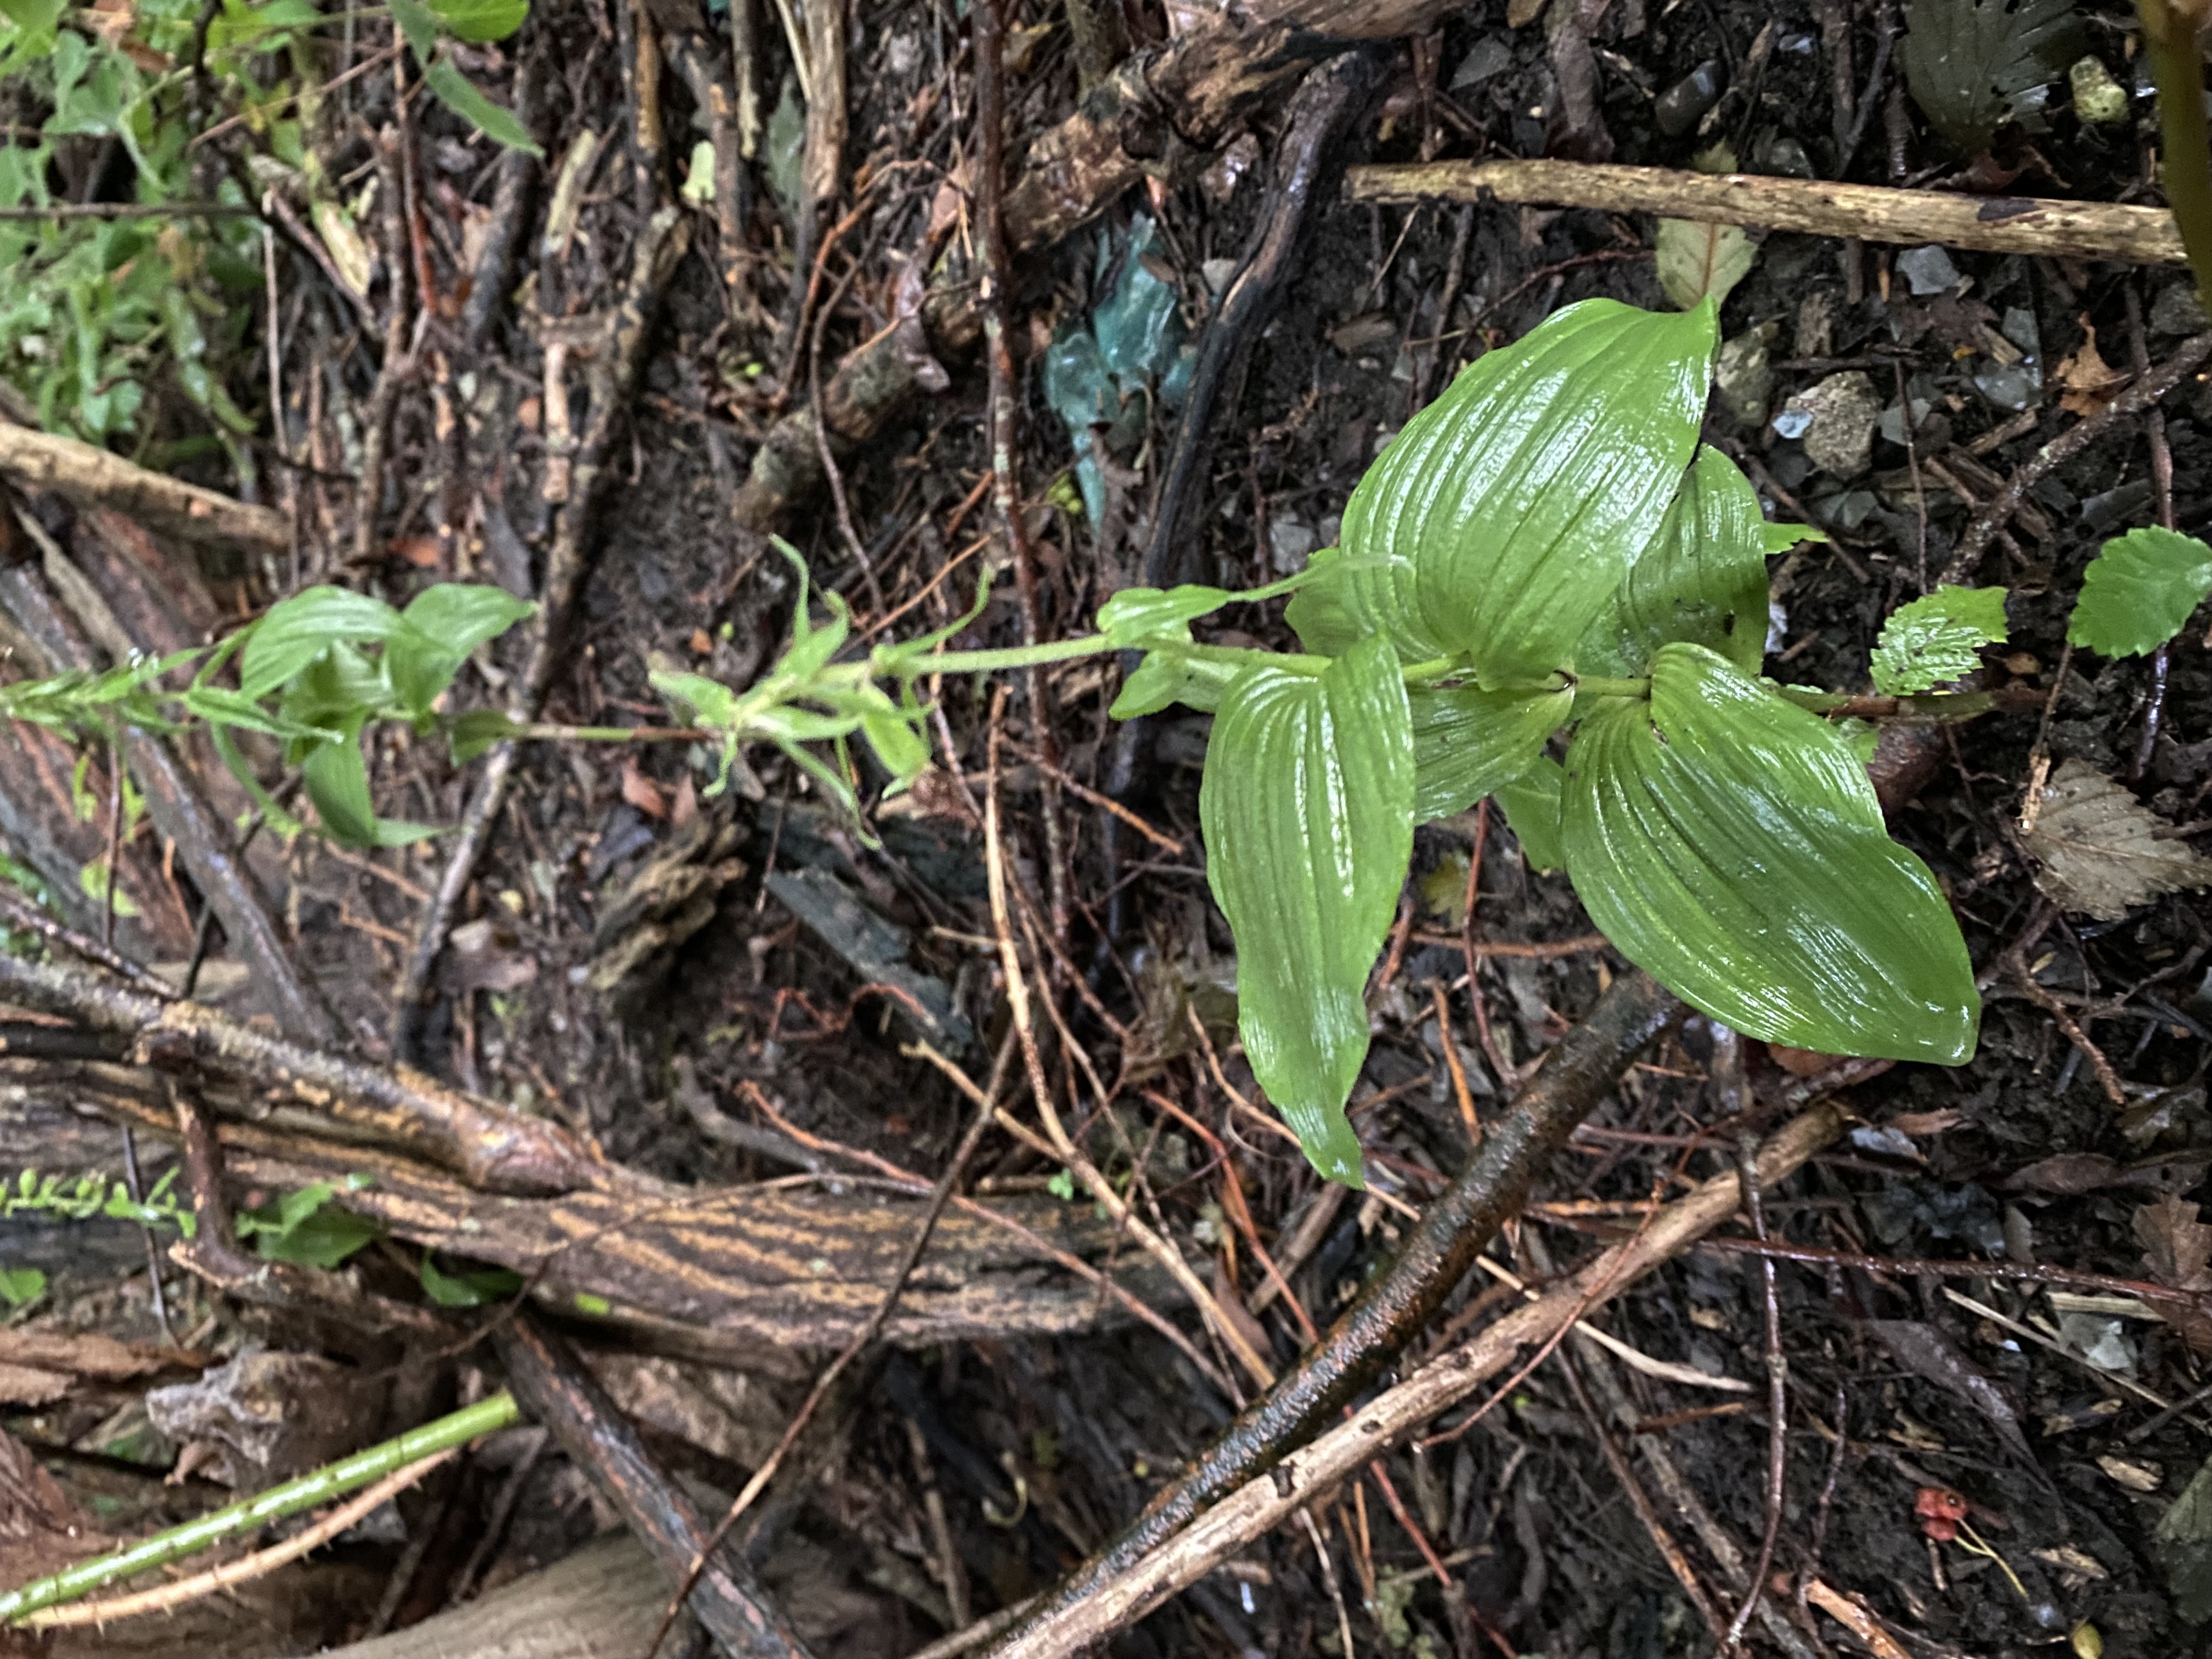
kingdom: Plantae
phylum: Tracheophyta
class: Liliopsida
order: Asparagales
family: Orchidaceae
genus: Epipactis
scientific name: Epipactis helleborine
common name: Skov-hullæbe
